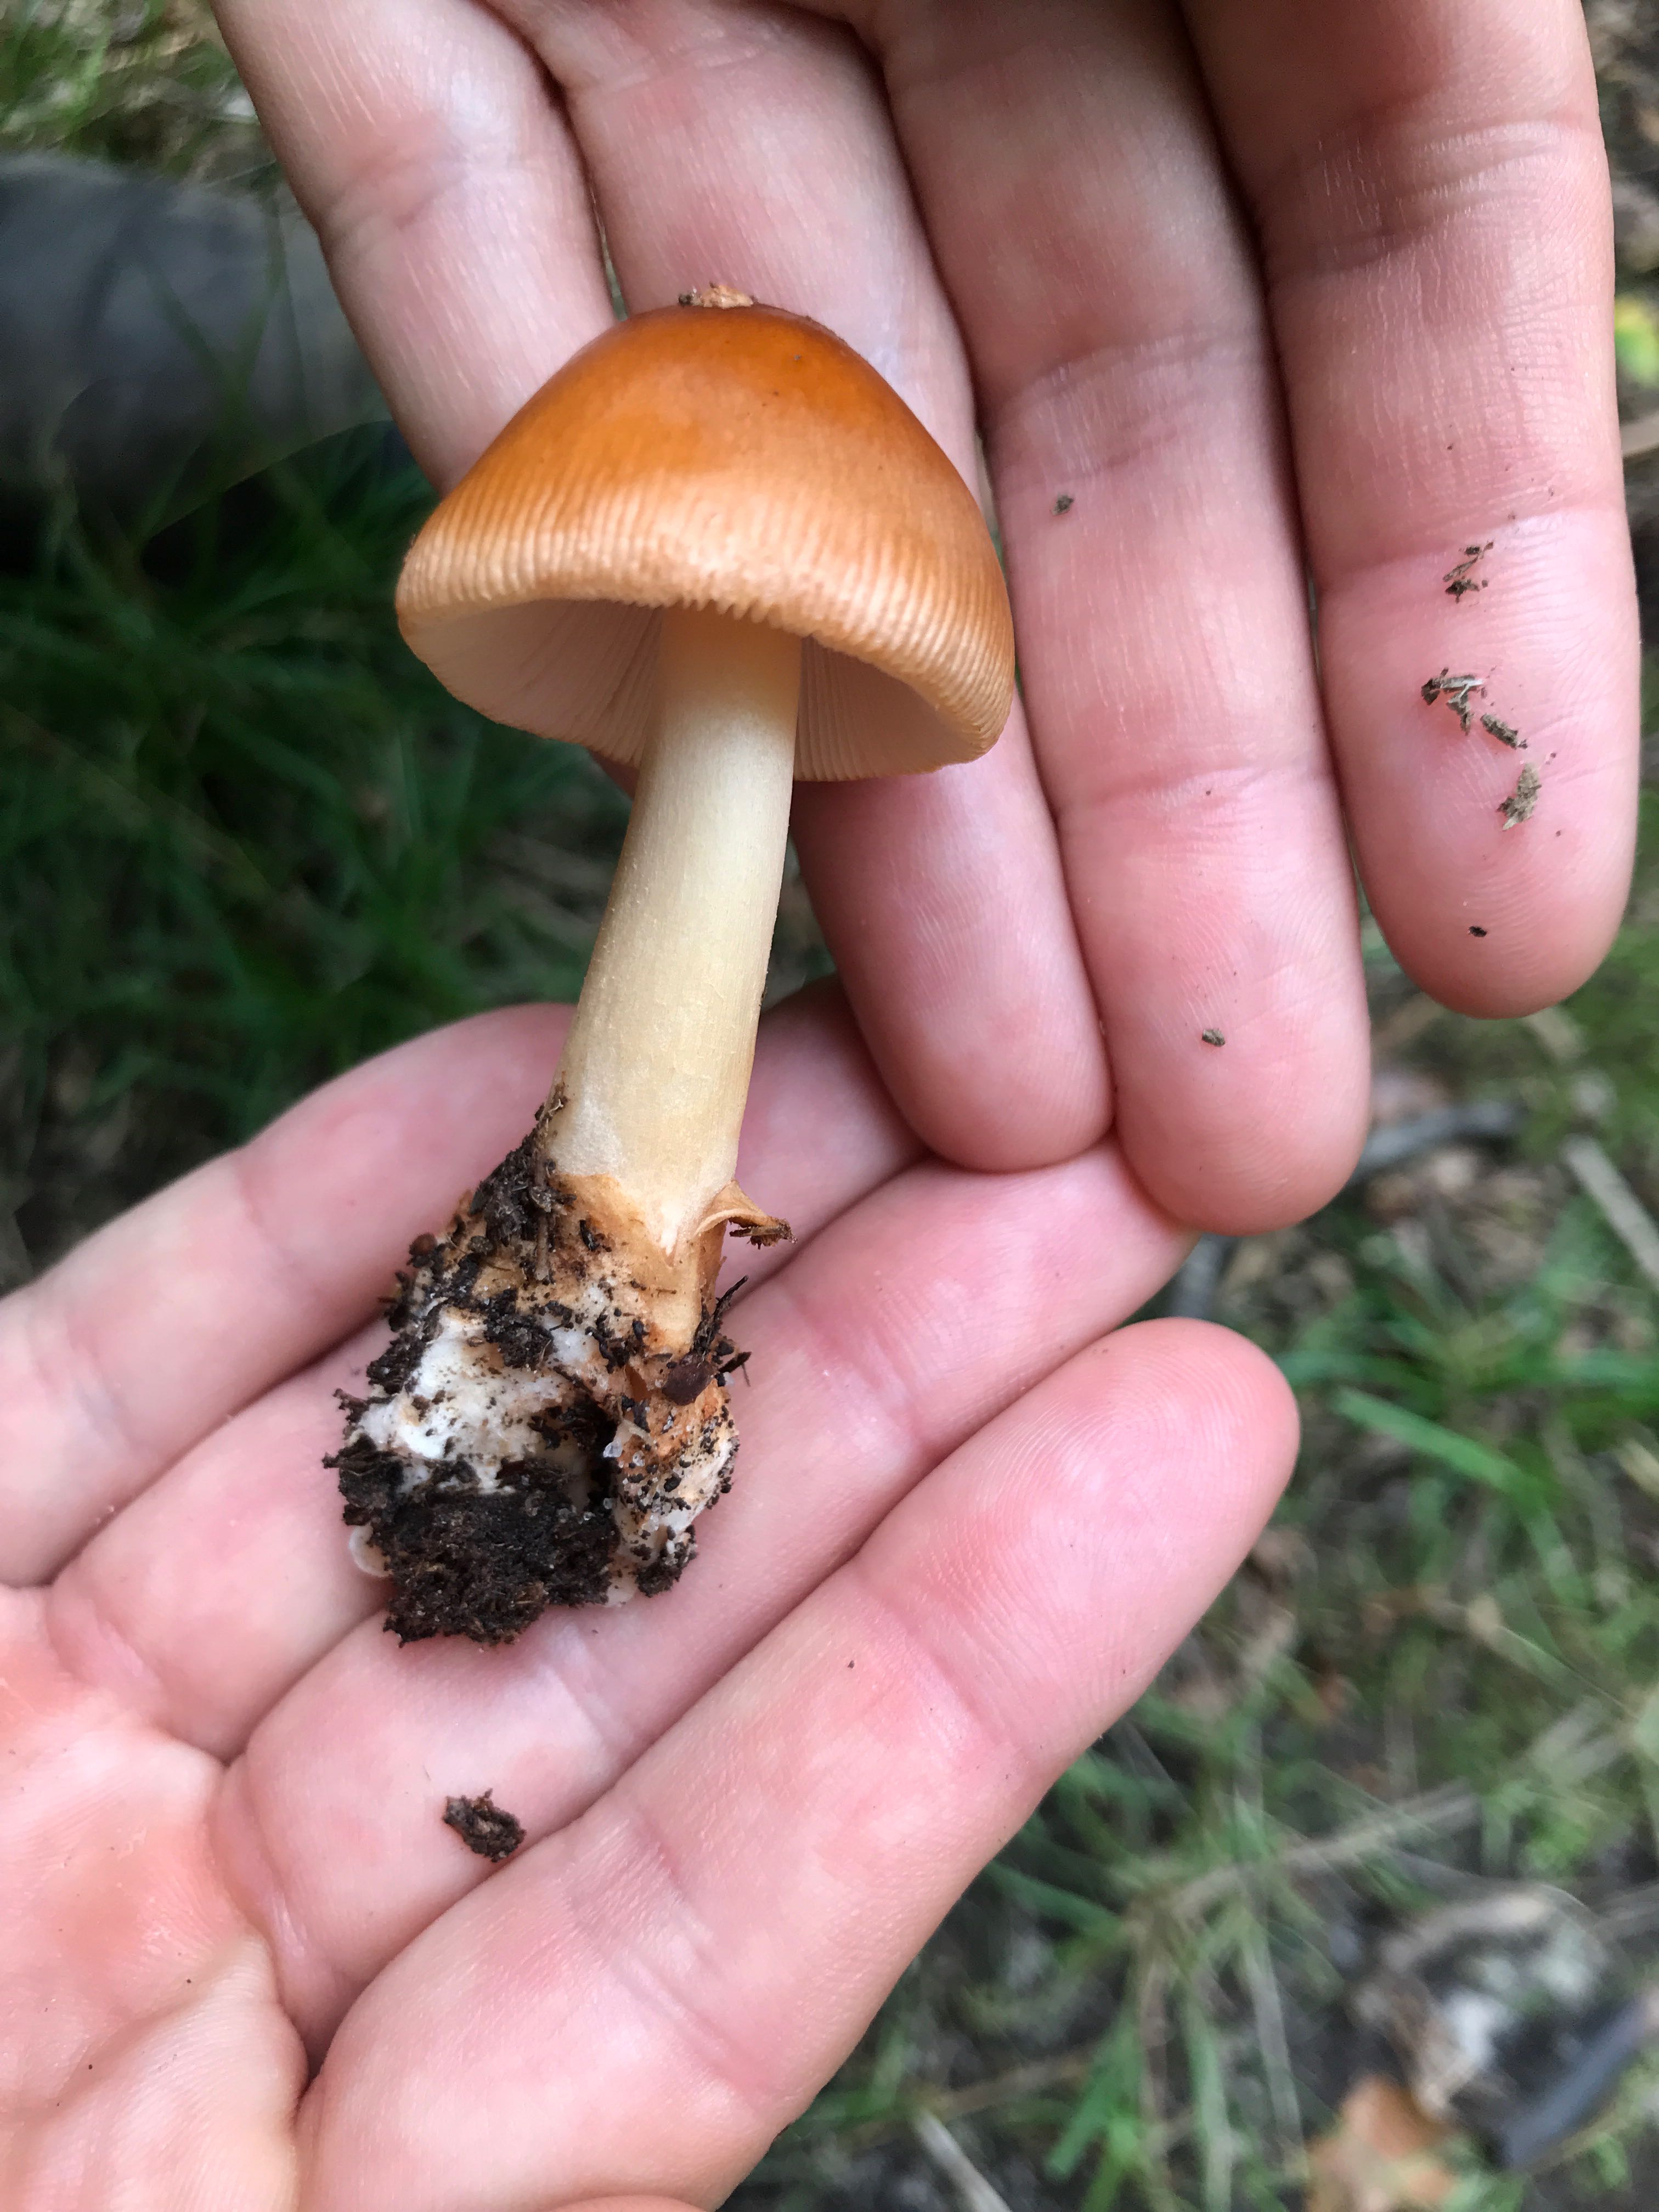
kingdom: Fungi
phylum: Basidiomycota
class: Agaricomycetes
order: Agaricales
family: Amanitaceae
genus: Amanita
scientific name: Amanita fulva
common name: brun kam-fluesvamp
